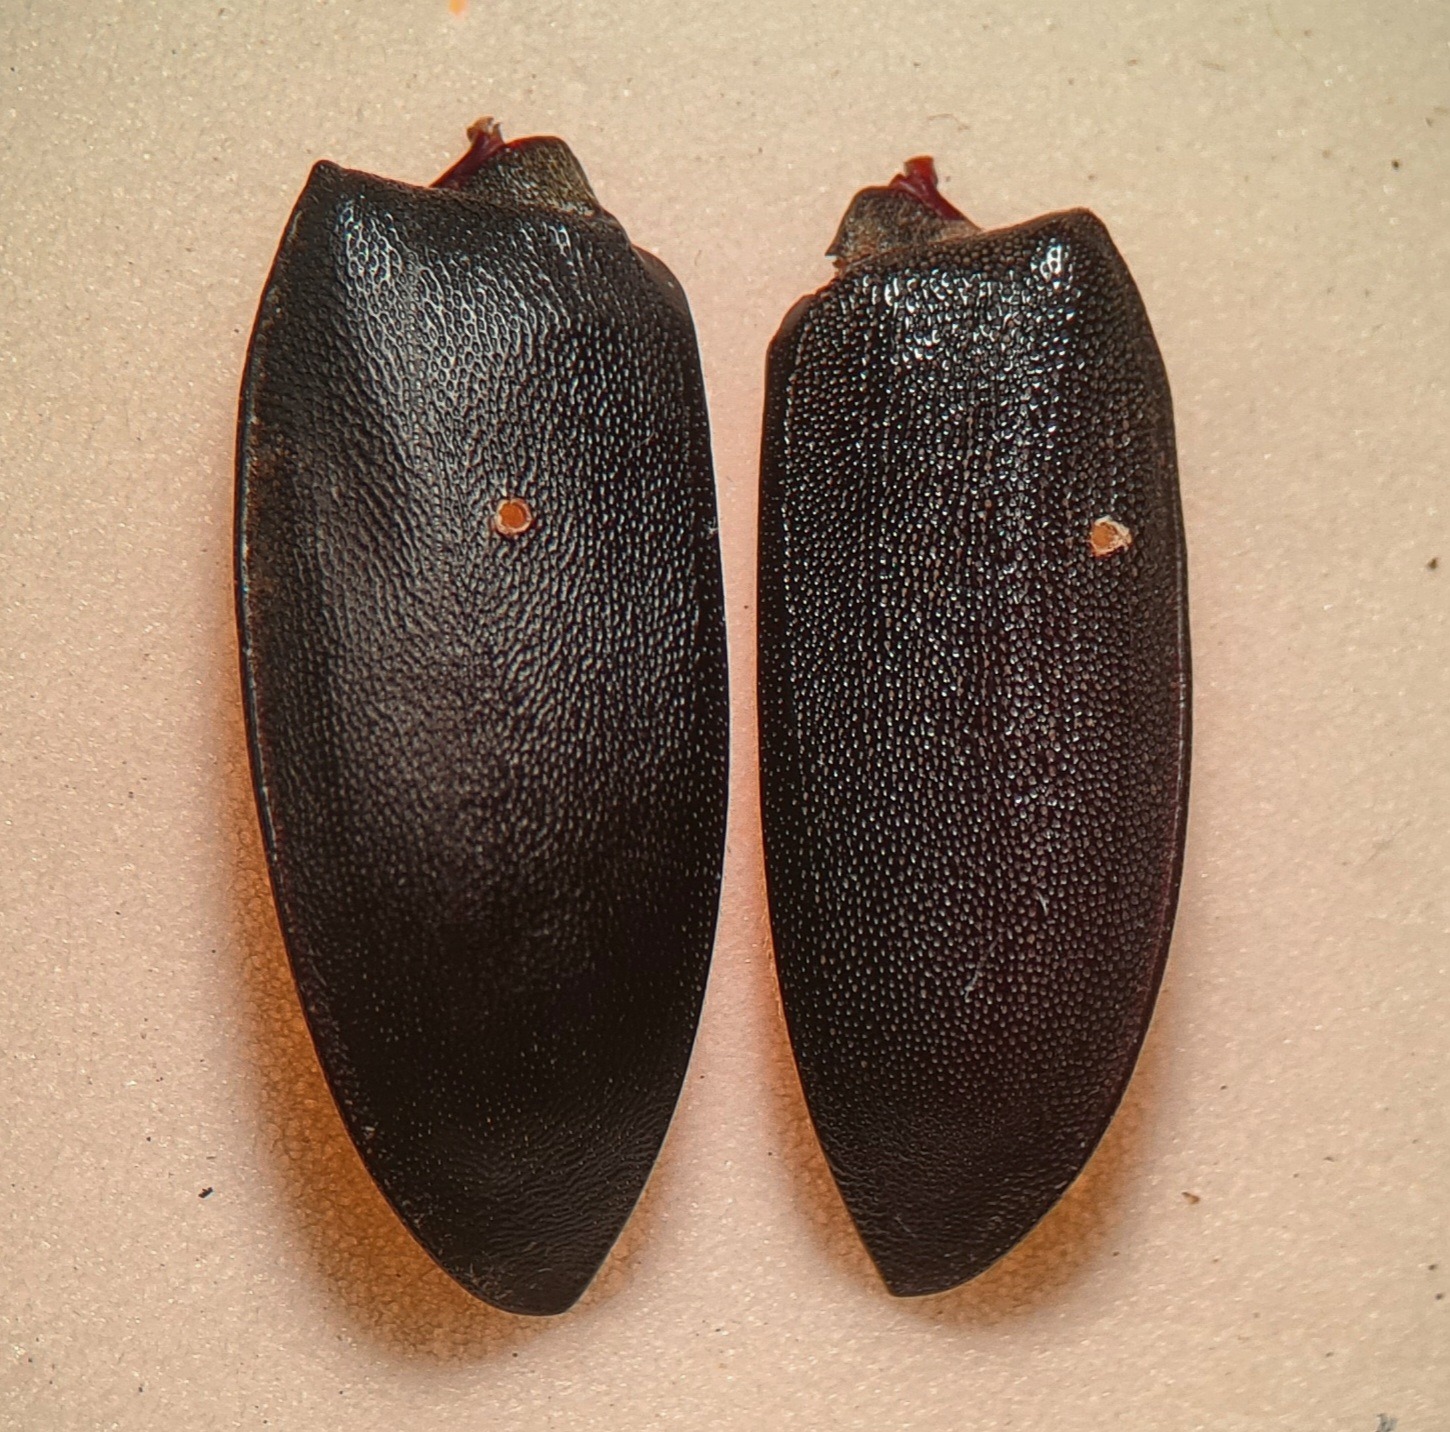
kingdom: Animalia
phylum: Arthropoda
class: Insecta
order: Coleoptera
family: Lucanidae
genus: Dorcus
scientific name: Dorcus parallelipipedus
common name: Bøghjort
